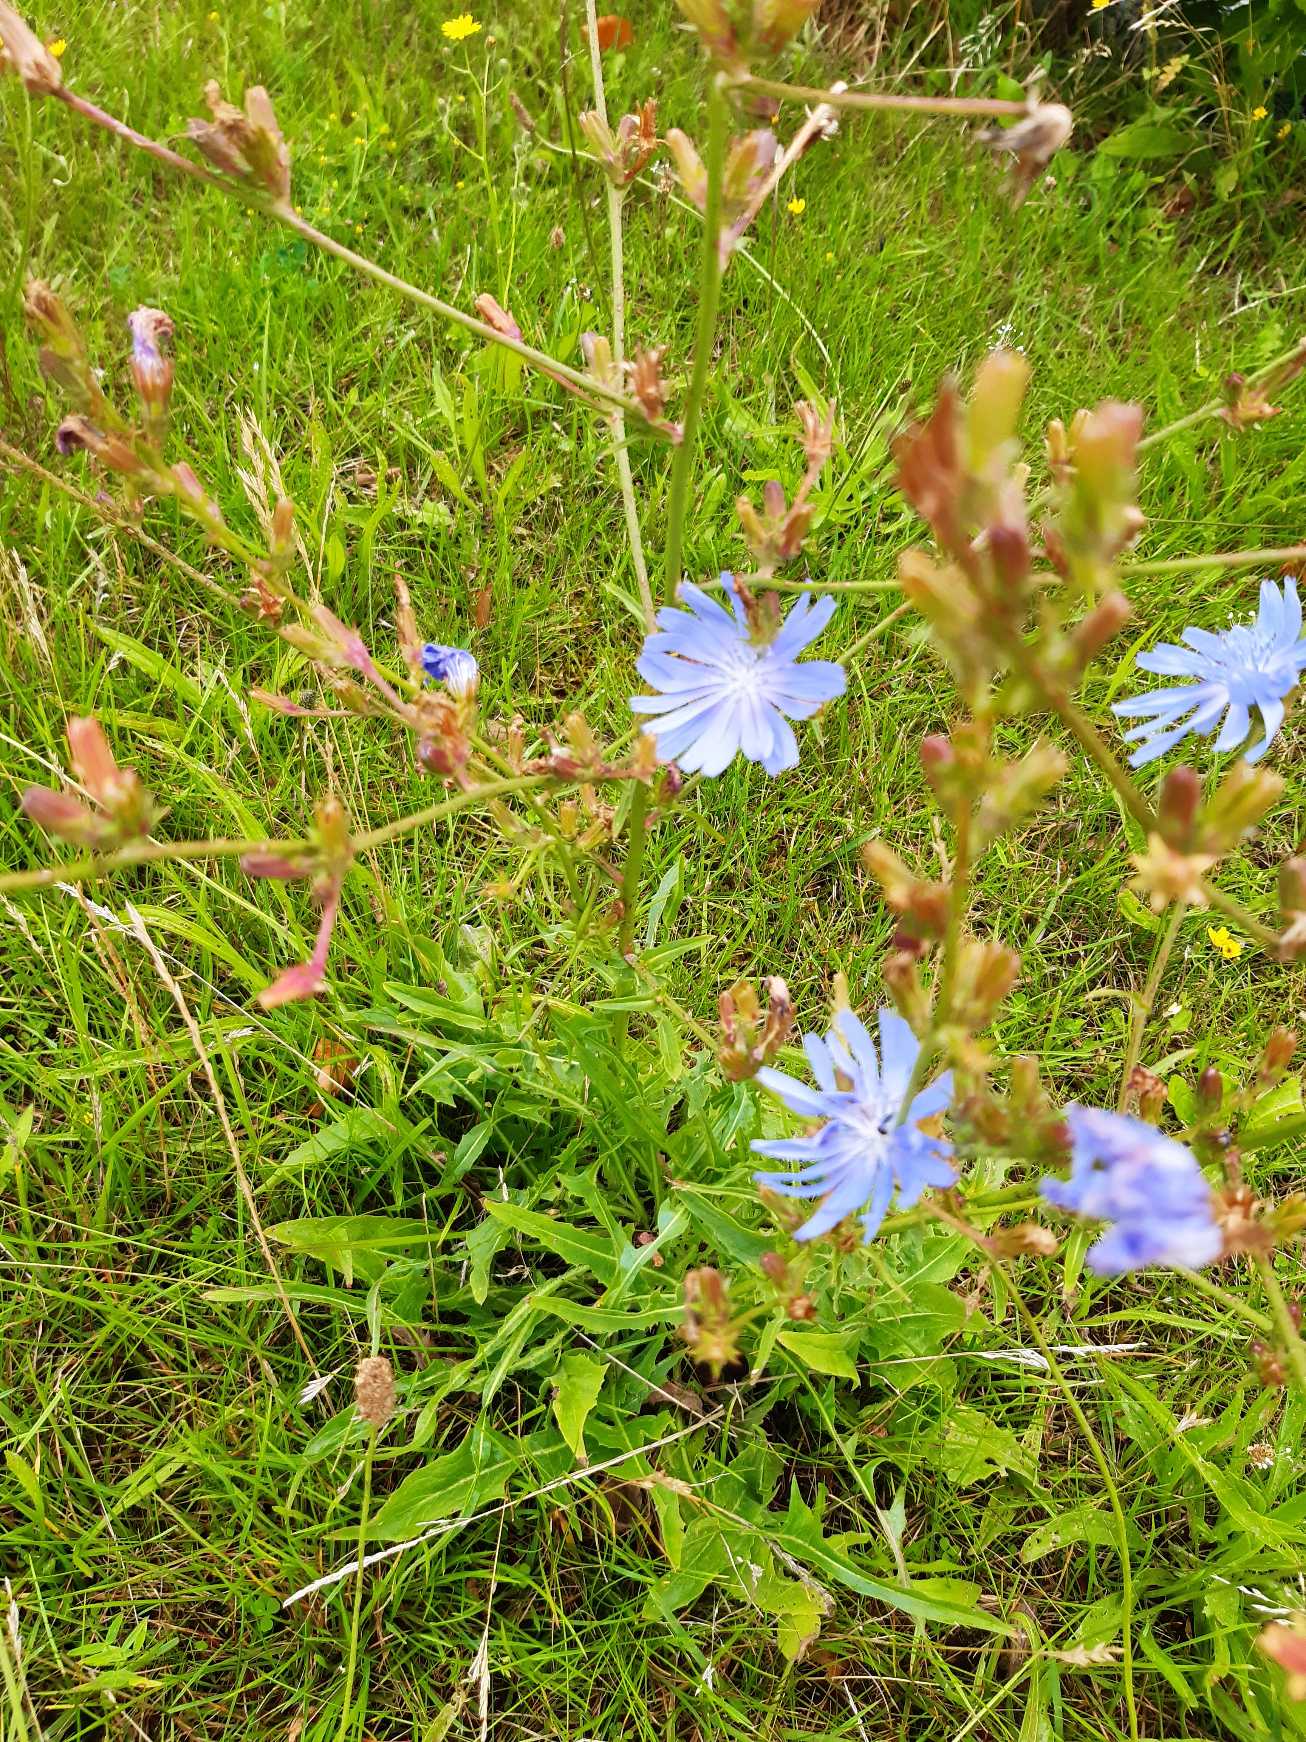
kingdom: Plantae
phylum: Tracheophyta
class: Magnoliopsida
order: Asterales
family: Asteraceae
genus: Cichorium
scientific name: Cichorium intybus
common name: Cikorie
